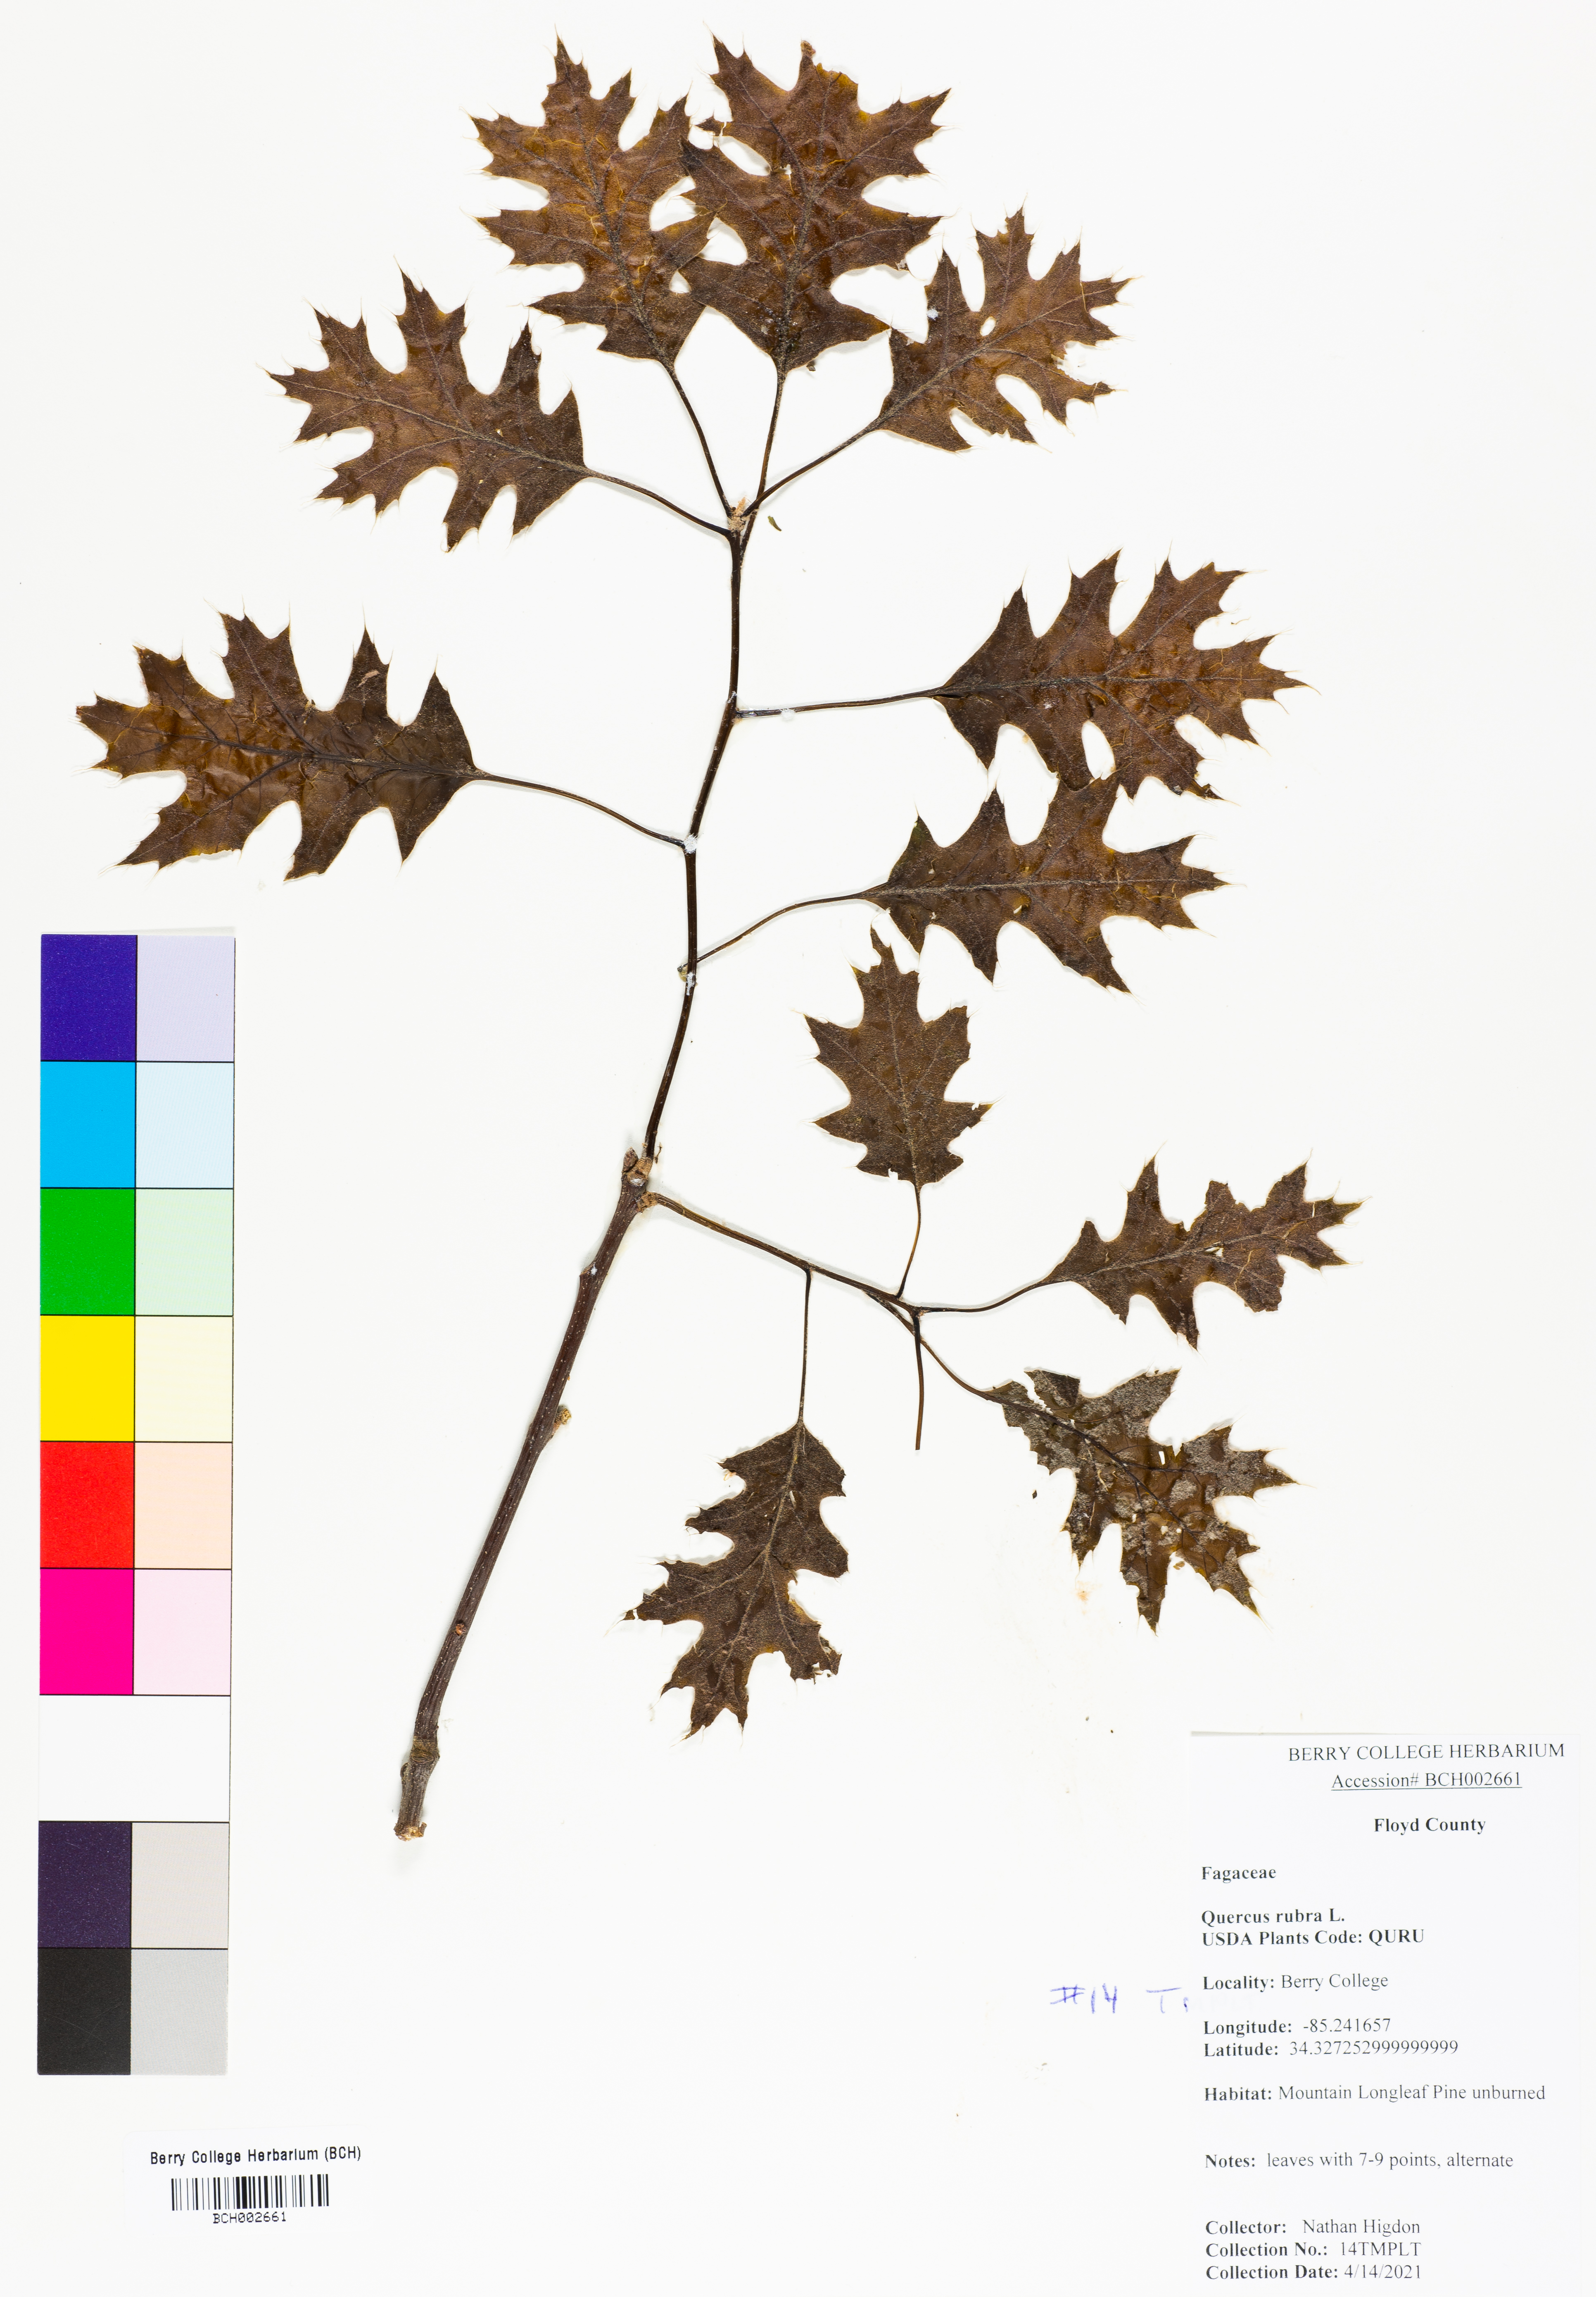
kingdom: Plantae
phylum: Tracheophyta
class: Magnoliopsida
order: Fagales
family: Fagaceae
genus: Quercus
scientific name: Quercus rubra
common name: Red oak
